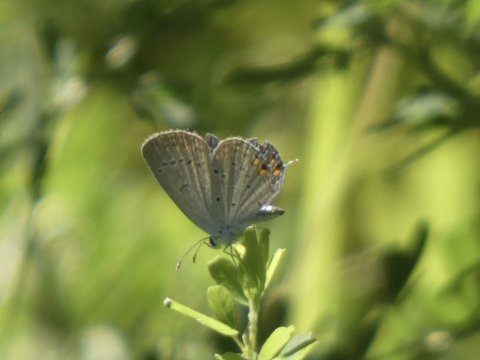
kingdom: Animalia
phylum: Arthropoda
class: Insecta
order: Lepidoptera
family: Lycaenidae
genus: Elkalyce
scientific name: Elkalyce comyntas
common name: Eastern Tailed-Blue
